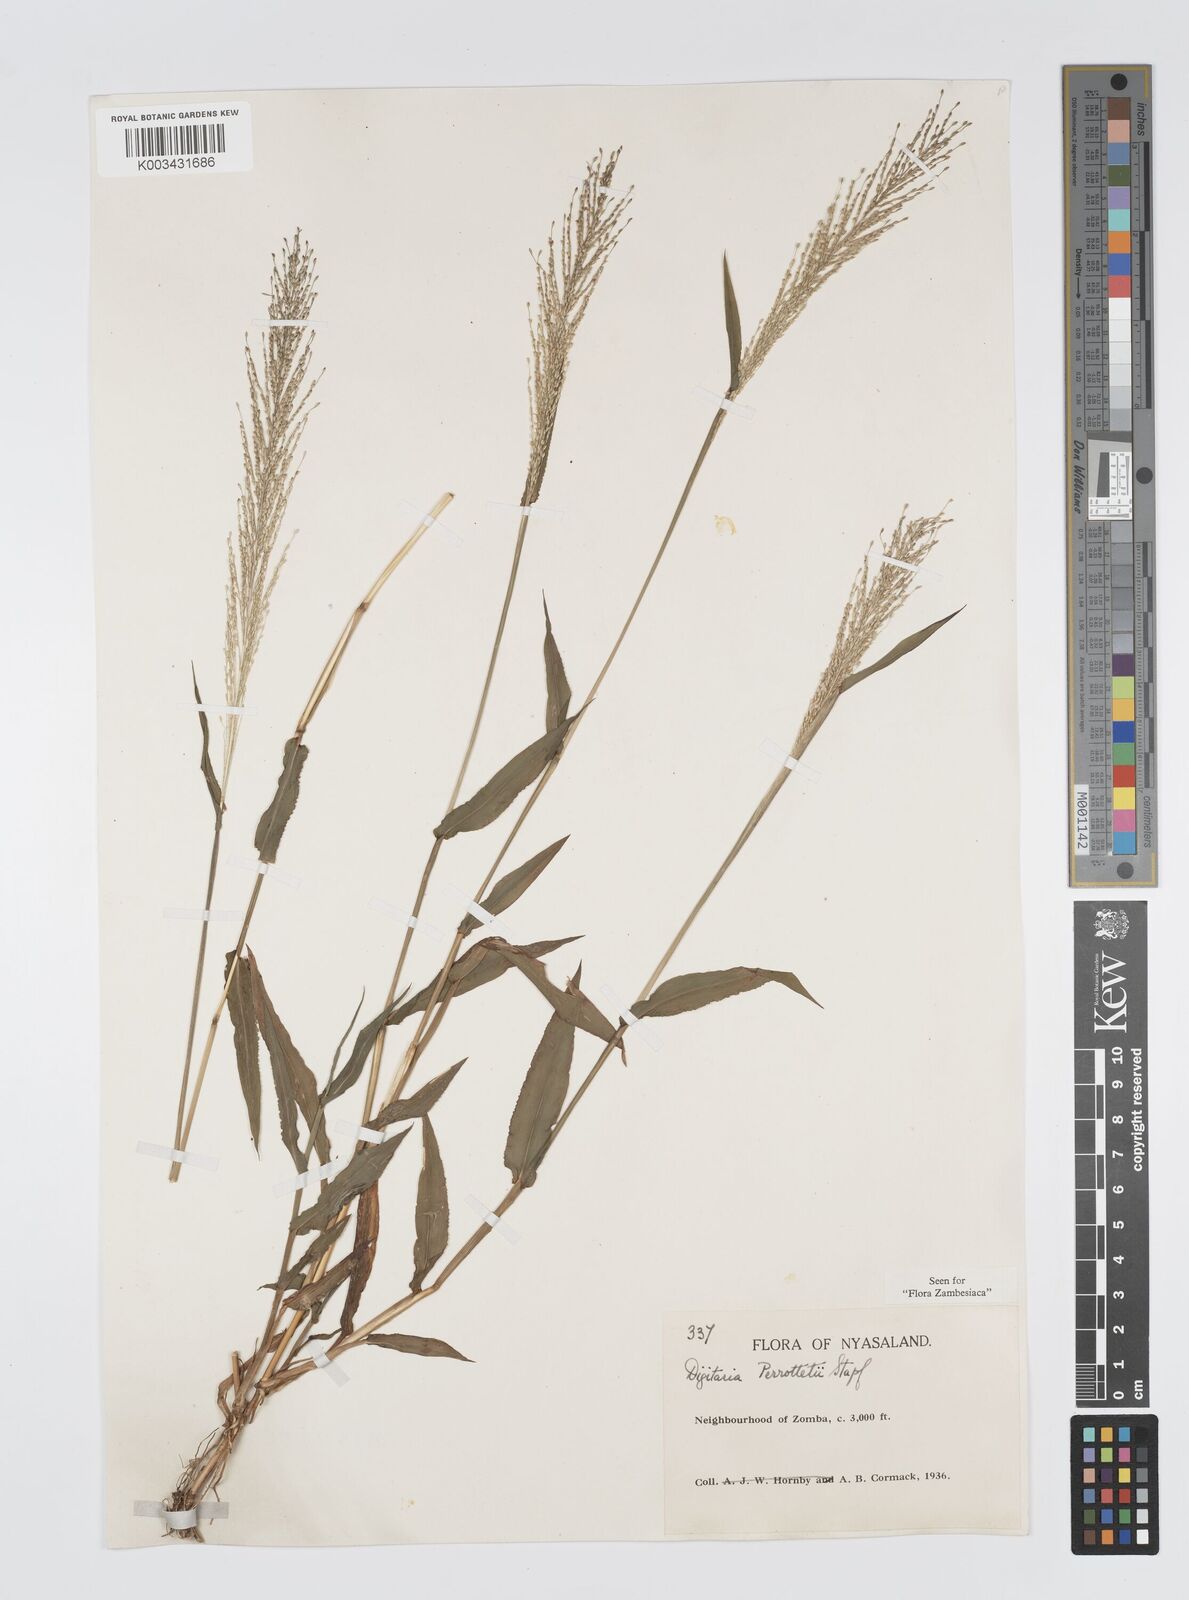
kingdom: Plantae
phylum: Tracheophyta
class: Liliopsida
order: Poales
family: Poaceae
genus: Digitaria
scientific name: Digitaria perrottetii
